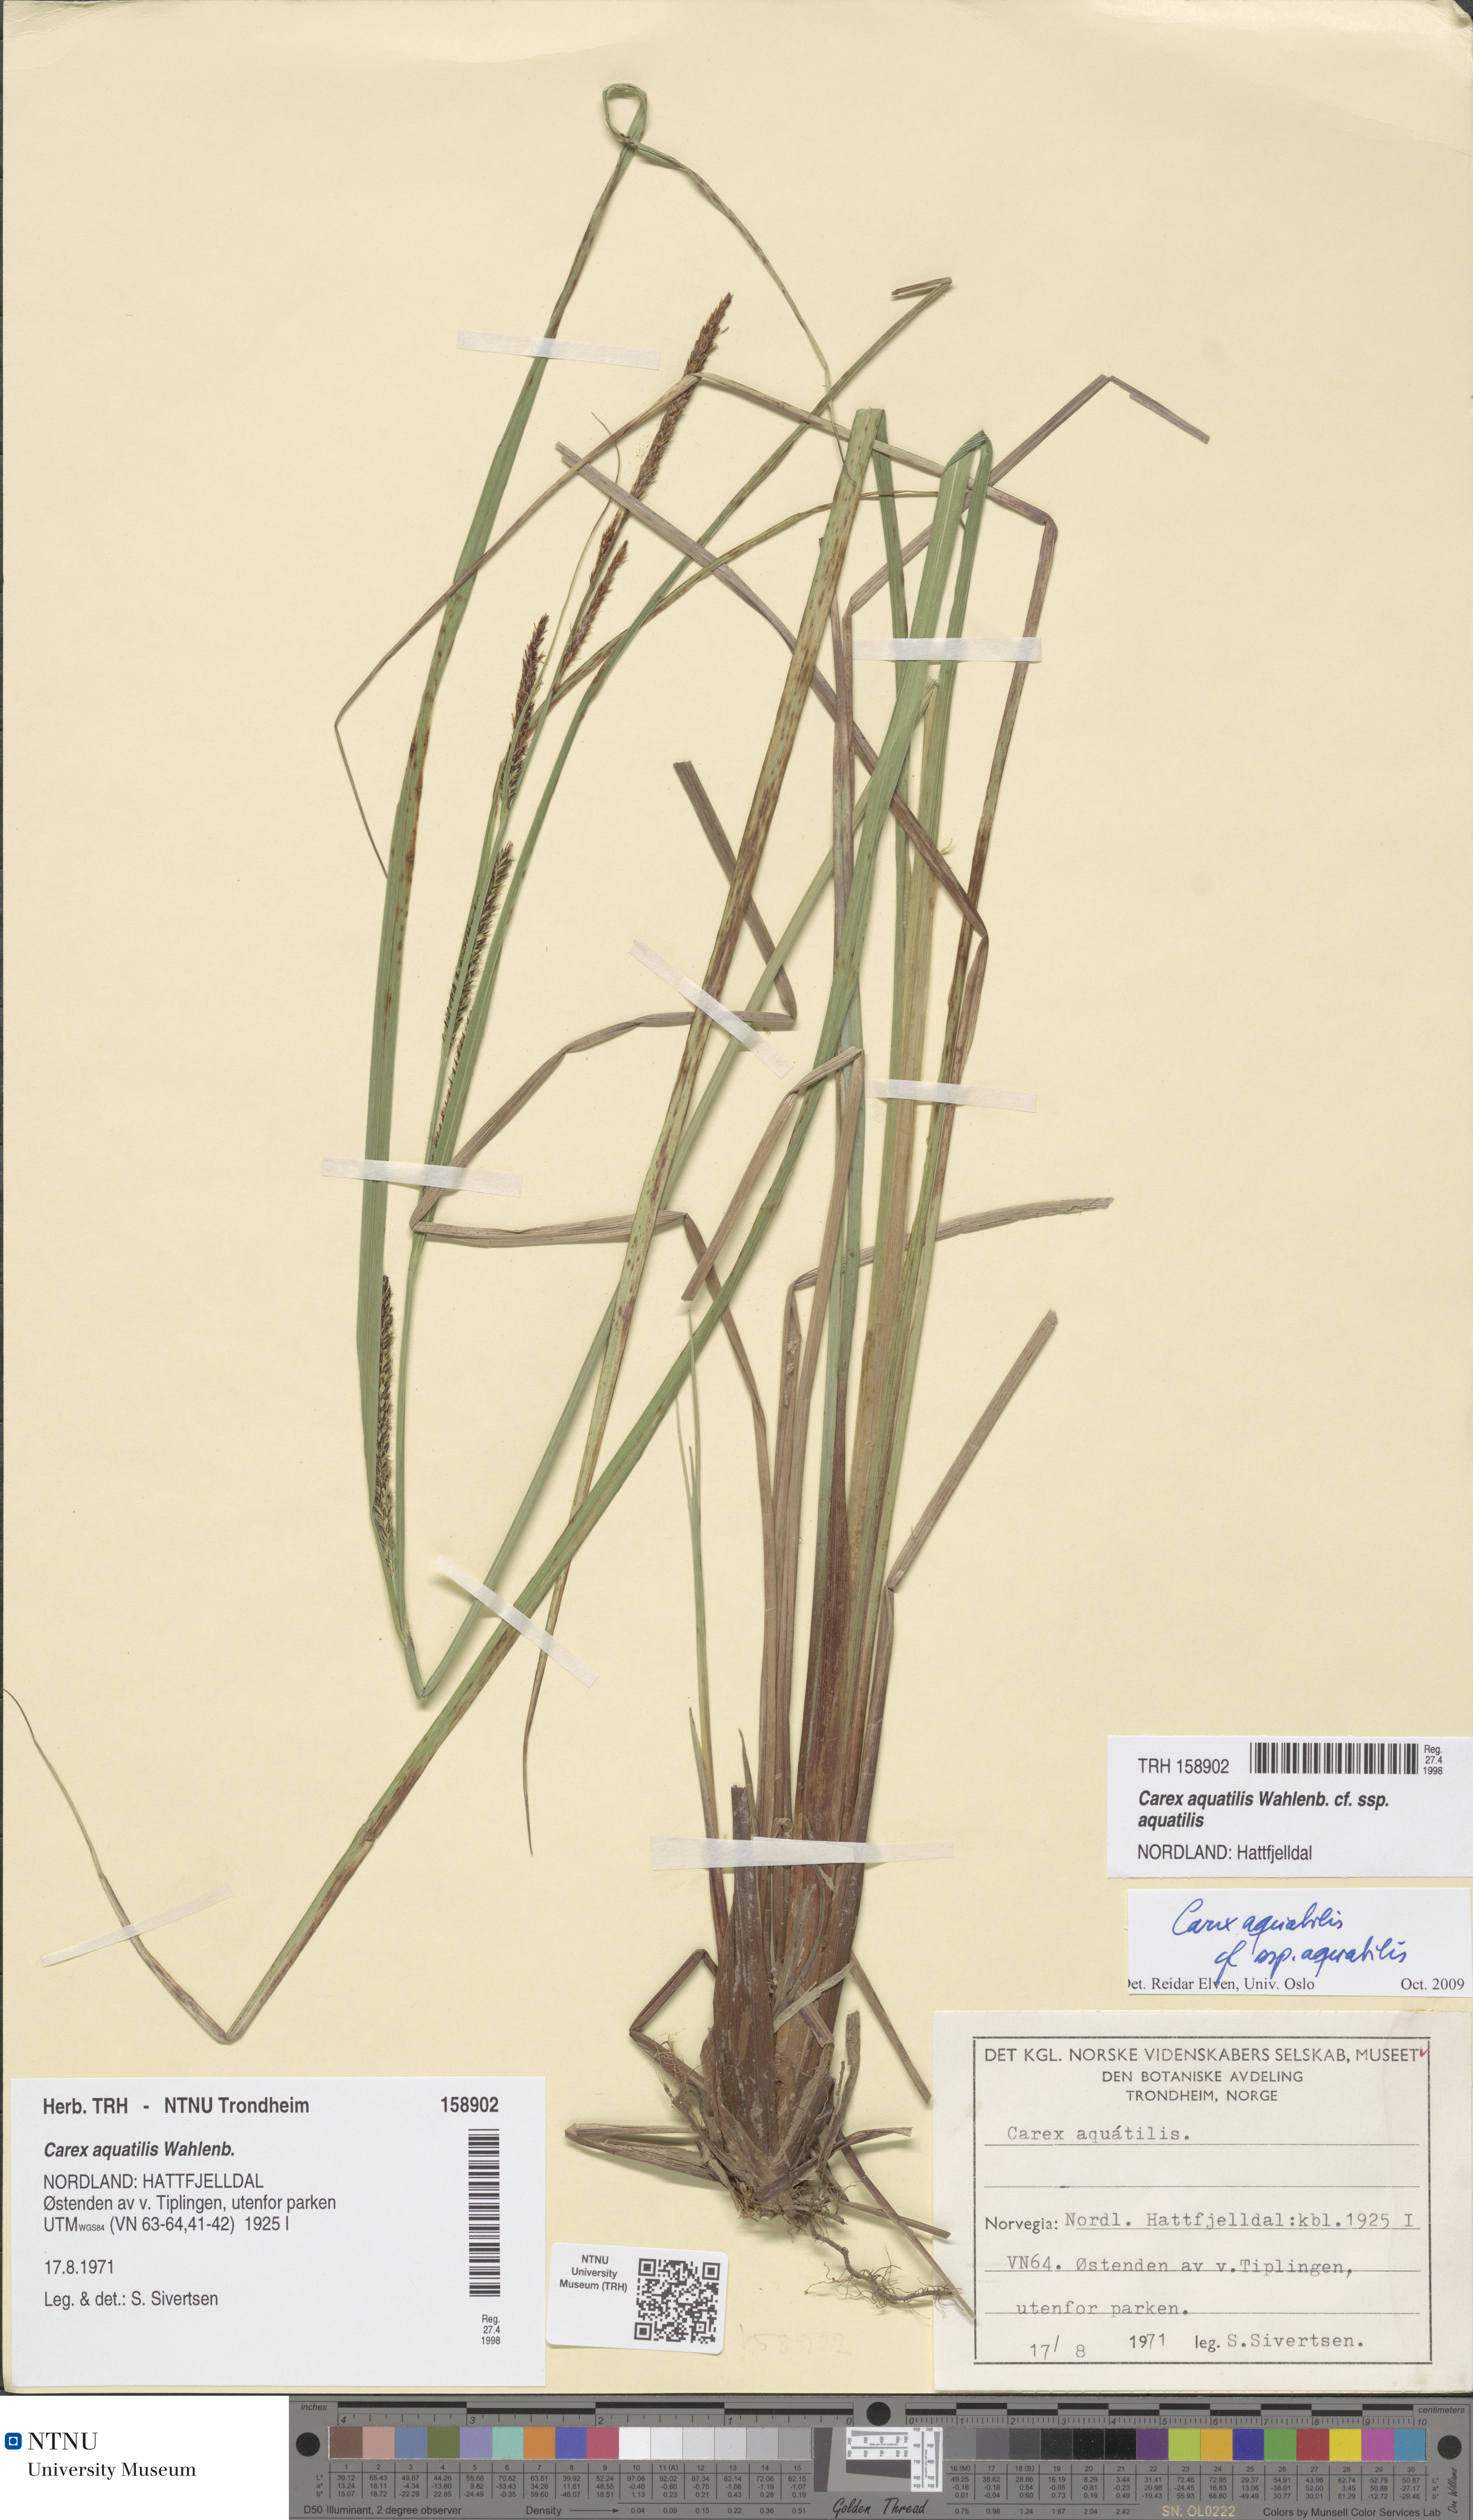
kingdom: Plantae
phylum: Tracheophyta
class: Liliopsida
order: Poales
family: Cyperaceae
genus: Carex
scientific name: Carex aquatilis
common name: Water sedge
